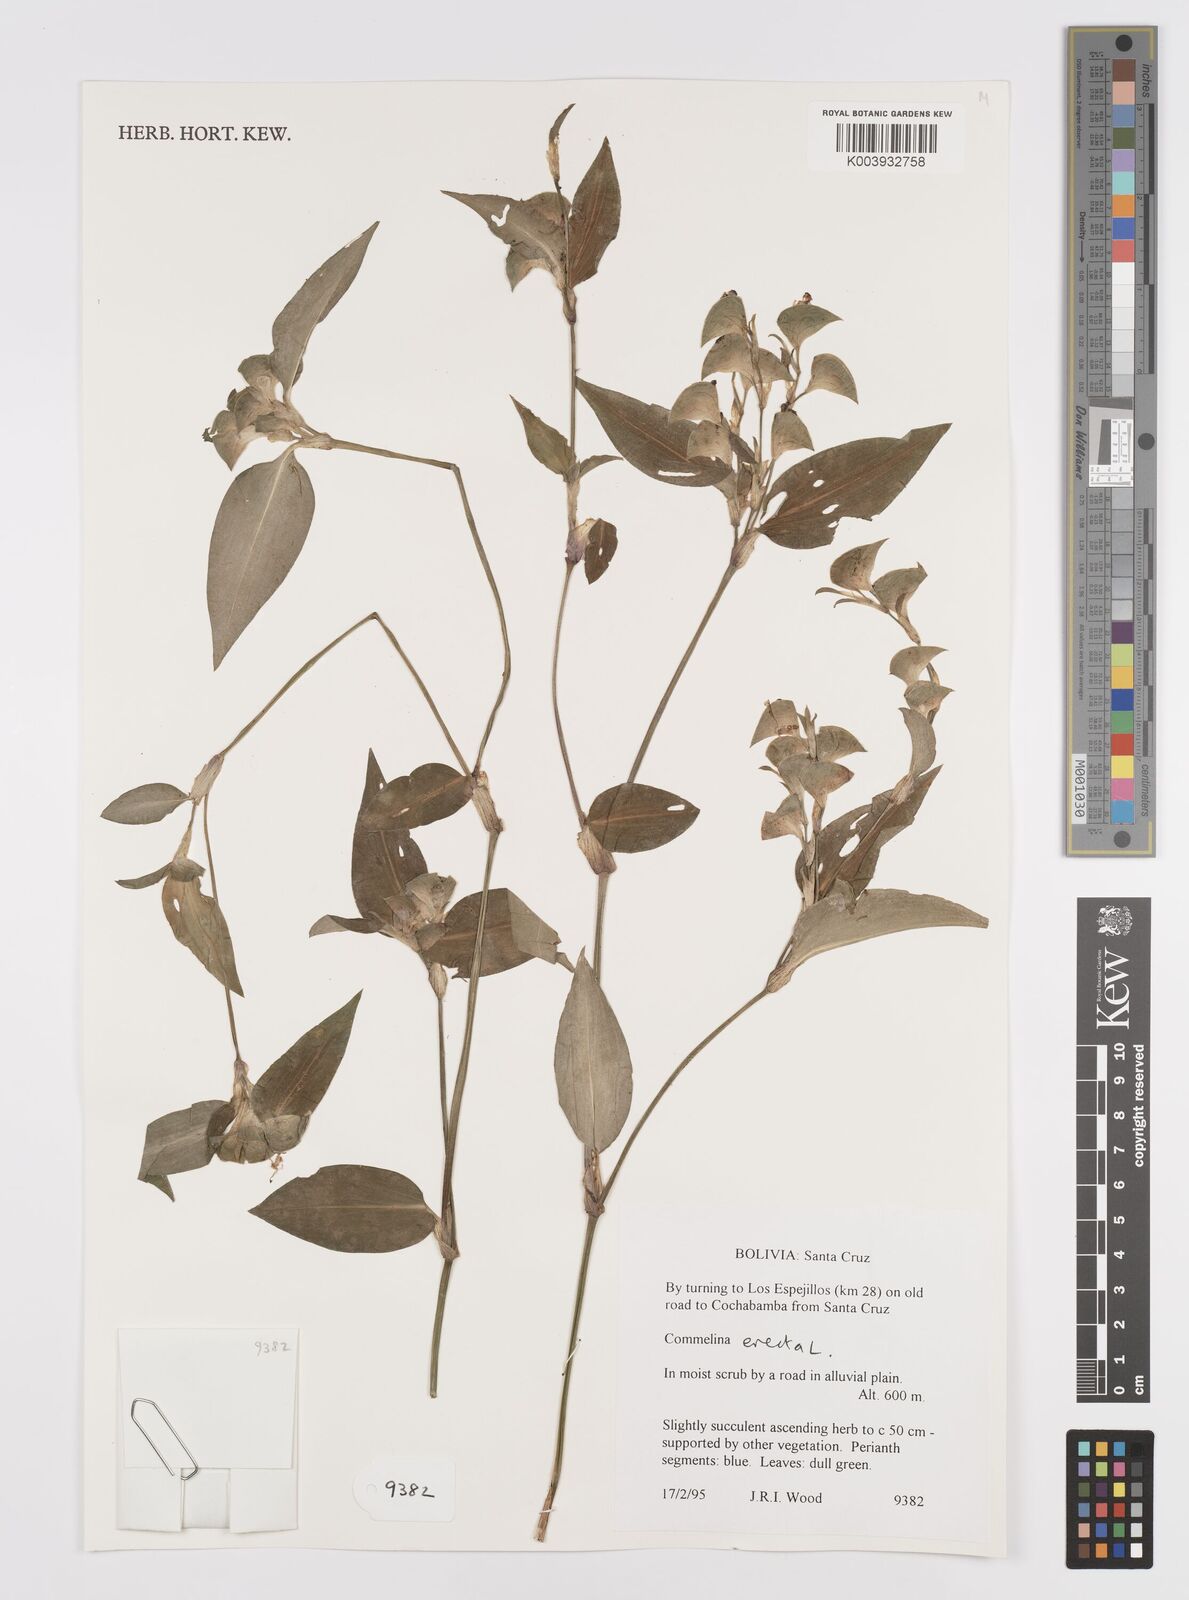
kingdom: Plantae
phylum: Tracheophyta
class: Liliopsida
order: Commelinales
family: Commelinaceae
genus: Commelina
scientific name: Commelina erecta
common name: Blousel blommetjie
